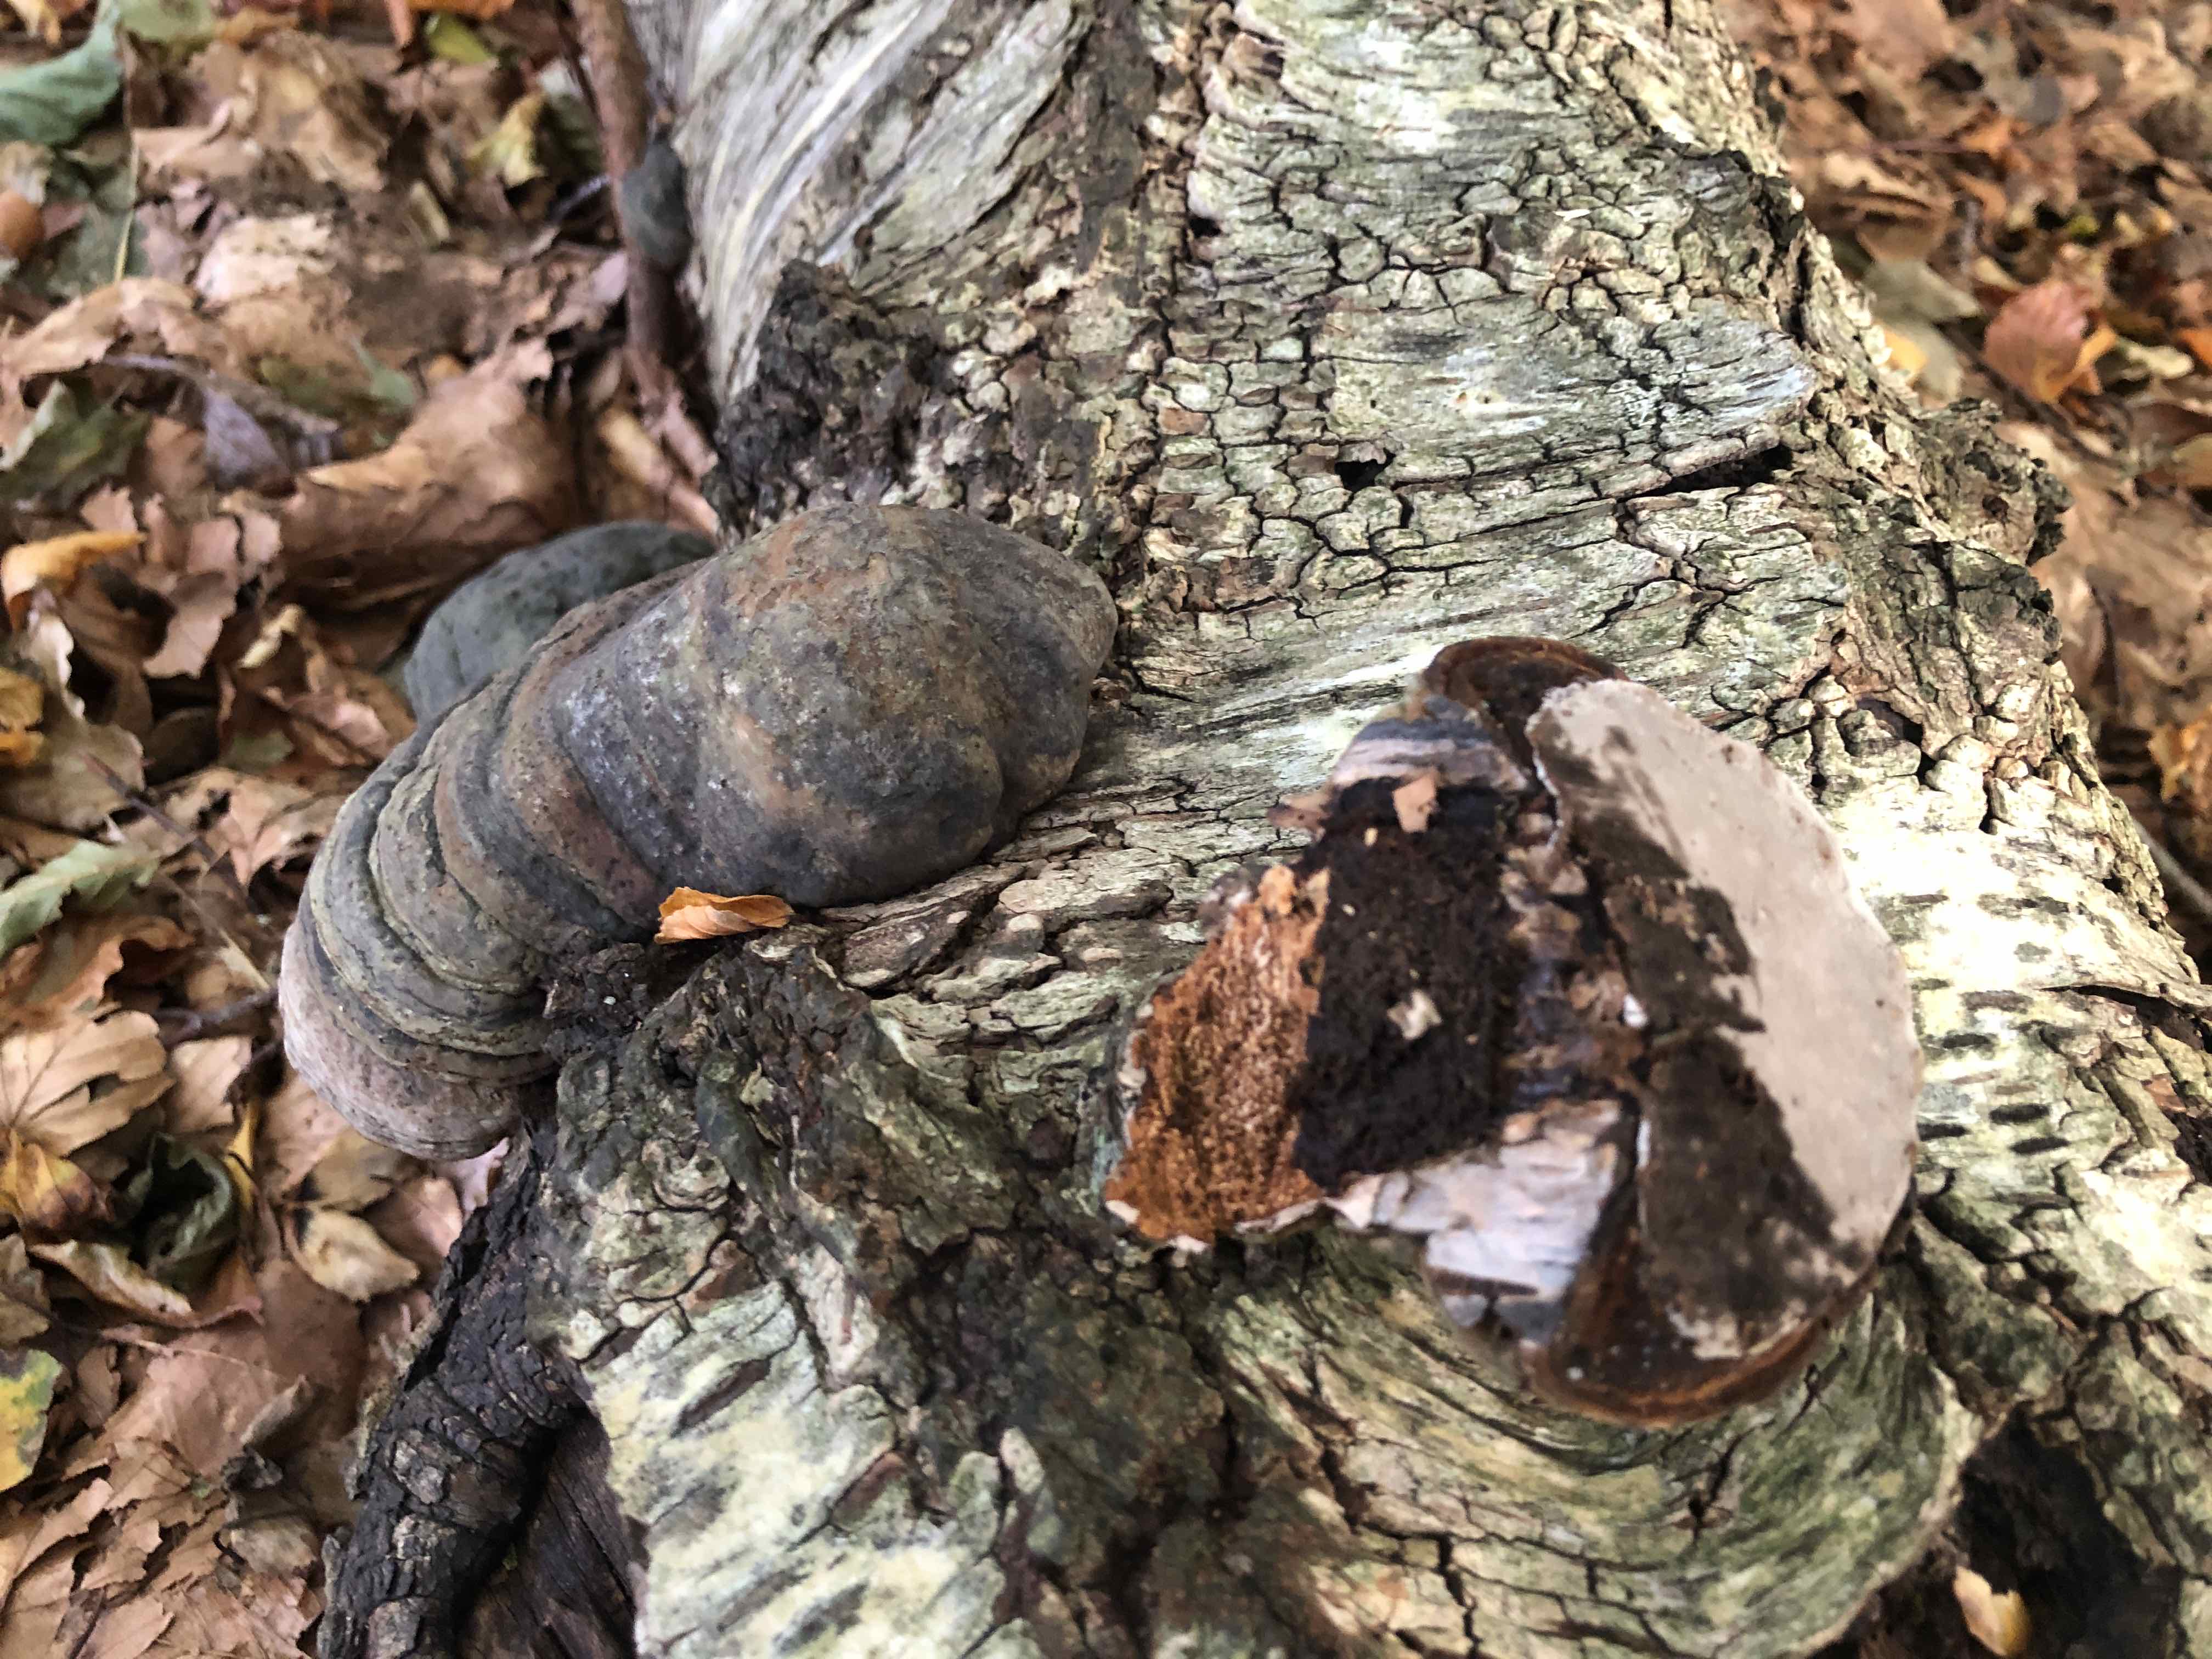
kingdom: Fungi
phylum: Basidiomycota
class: Agaricomycetes
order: Polyporales
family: Polyporaceae
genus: Fomes
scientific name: Fomes fomentarius
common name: tøndersvamp
